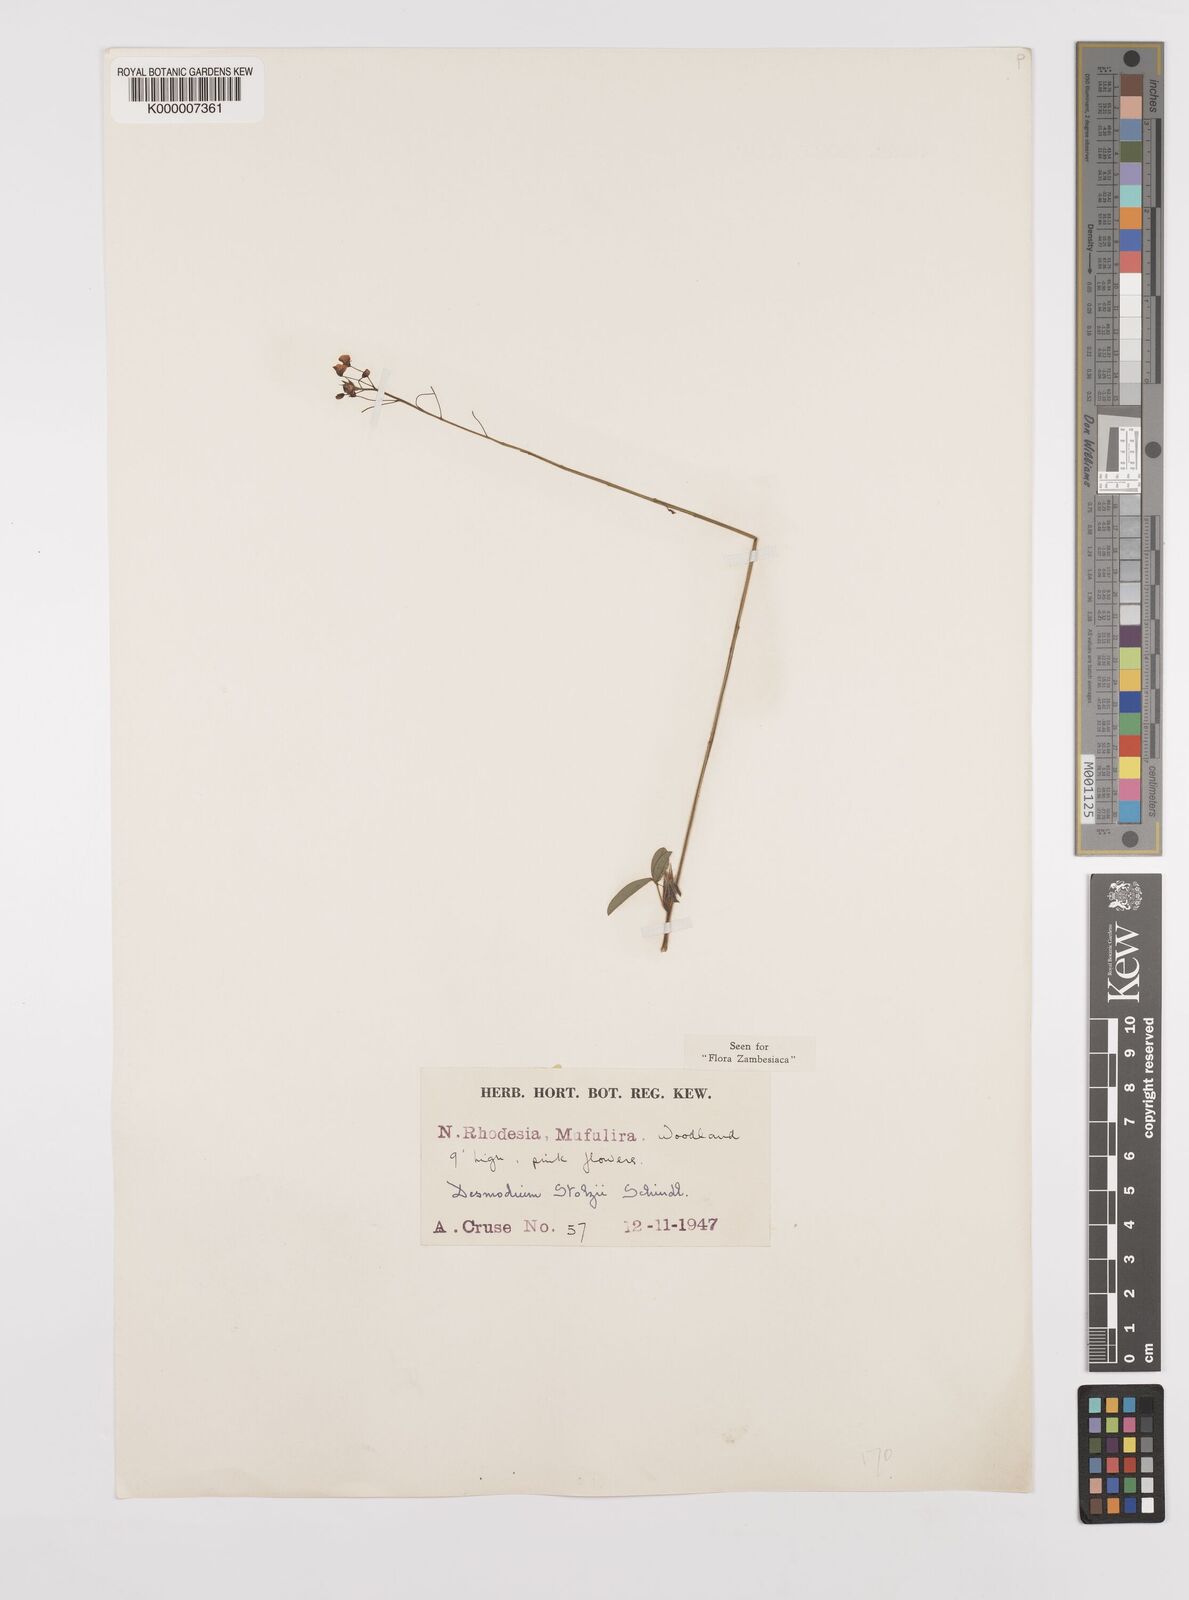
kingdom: Plantae
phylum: Tracheophyta
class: Magnoliopsida
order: Fabales
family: Fabaceae
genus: Grona
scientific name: Grona stolzii
